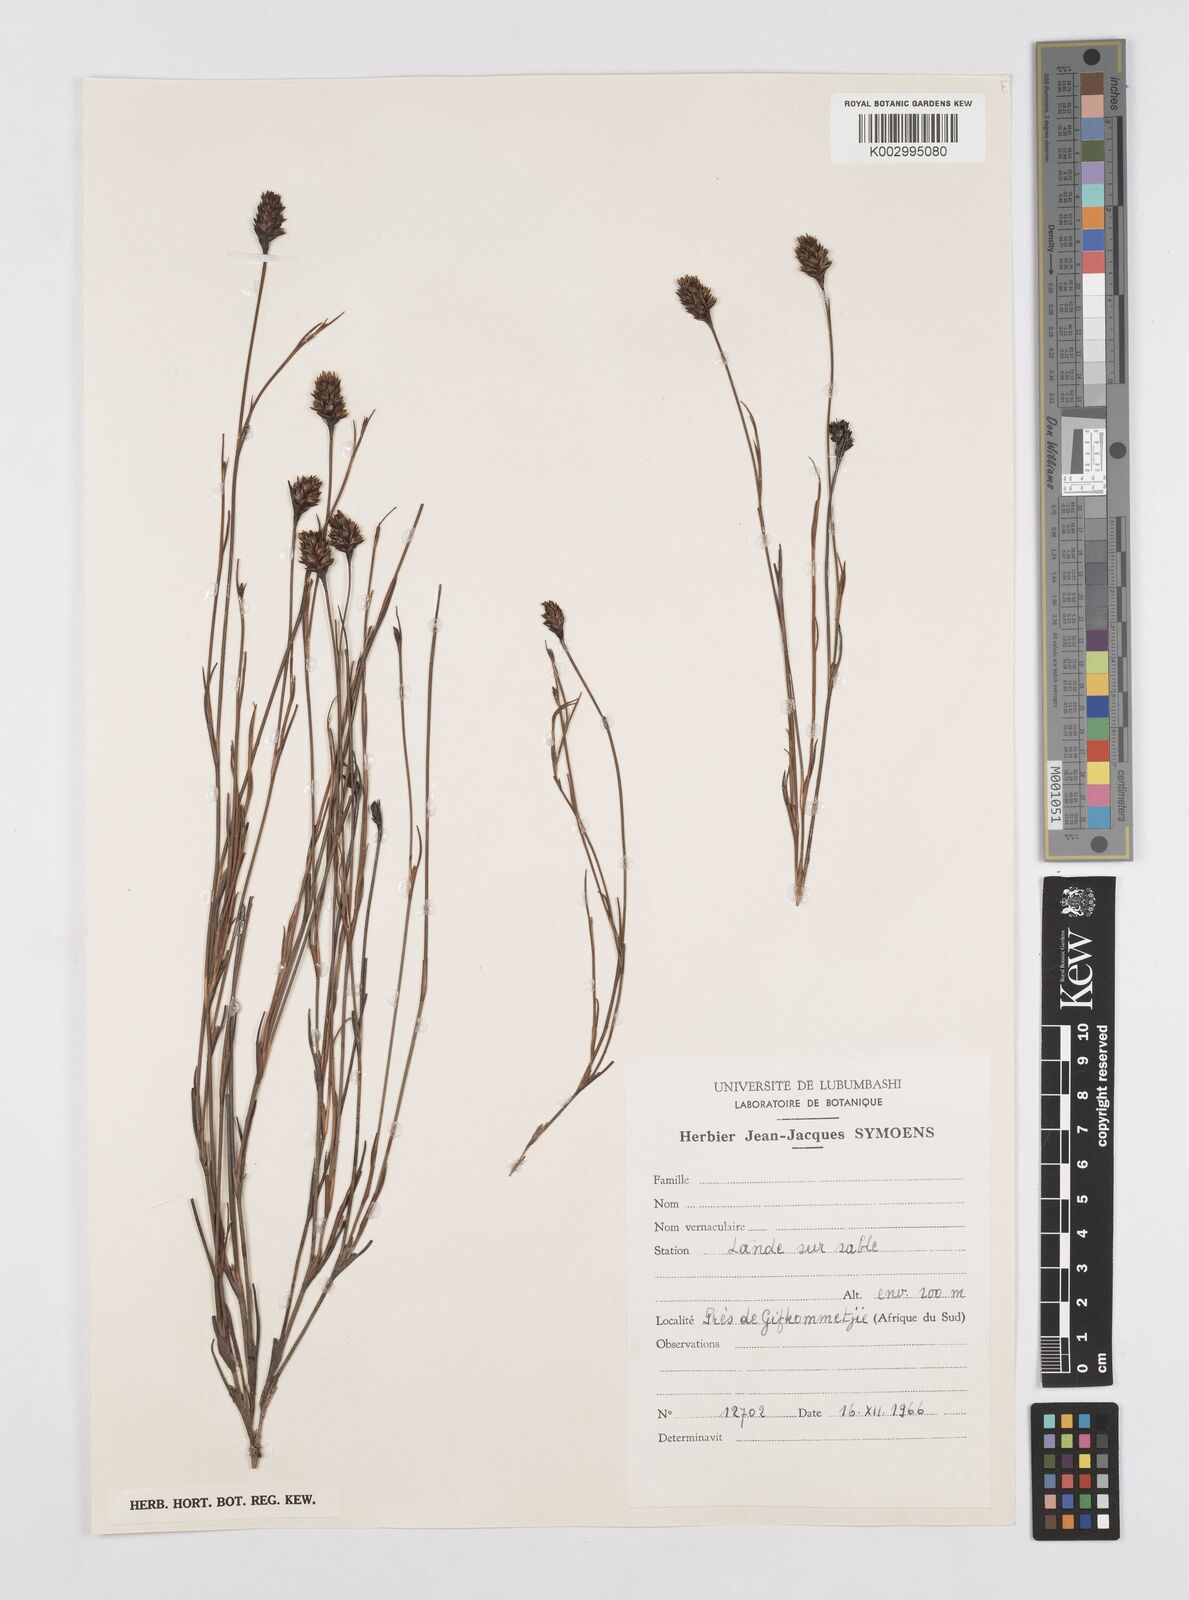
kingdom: Plantae
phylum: Tracheophyta
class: Liliopsida
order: Poales
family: Restionaceae
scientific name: Restionaceae
